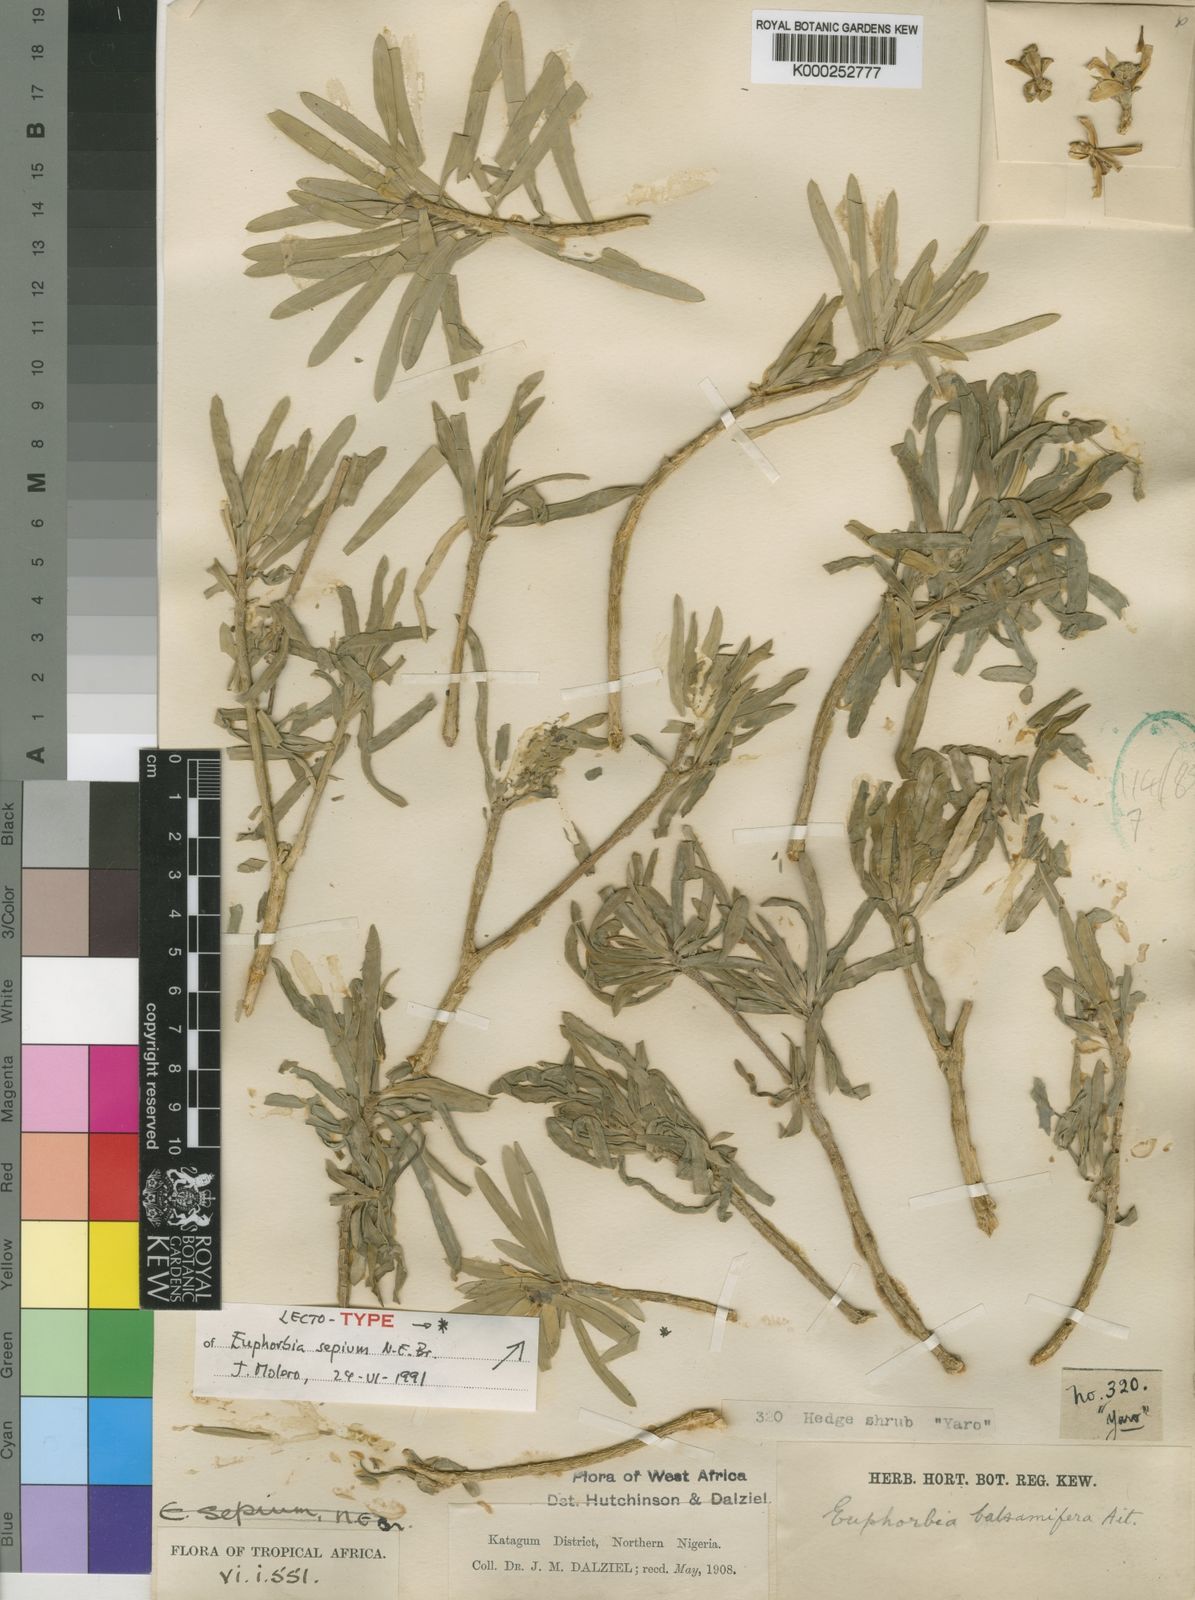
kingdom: Plantae
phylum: Tracheophyta
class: Magnoliopsida
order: Malpighiales
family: Euphorbiaceae
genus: Euphorbia
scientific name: Euphorbia balsamifera
